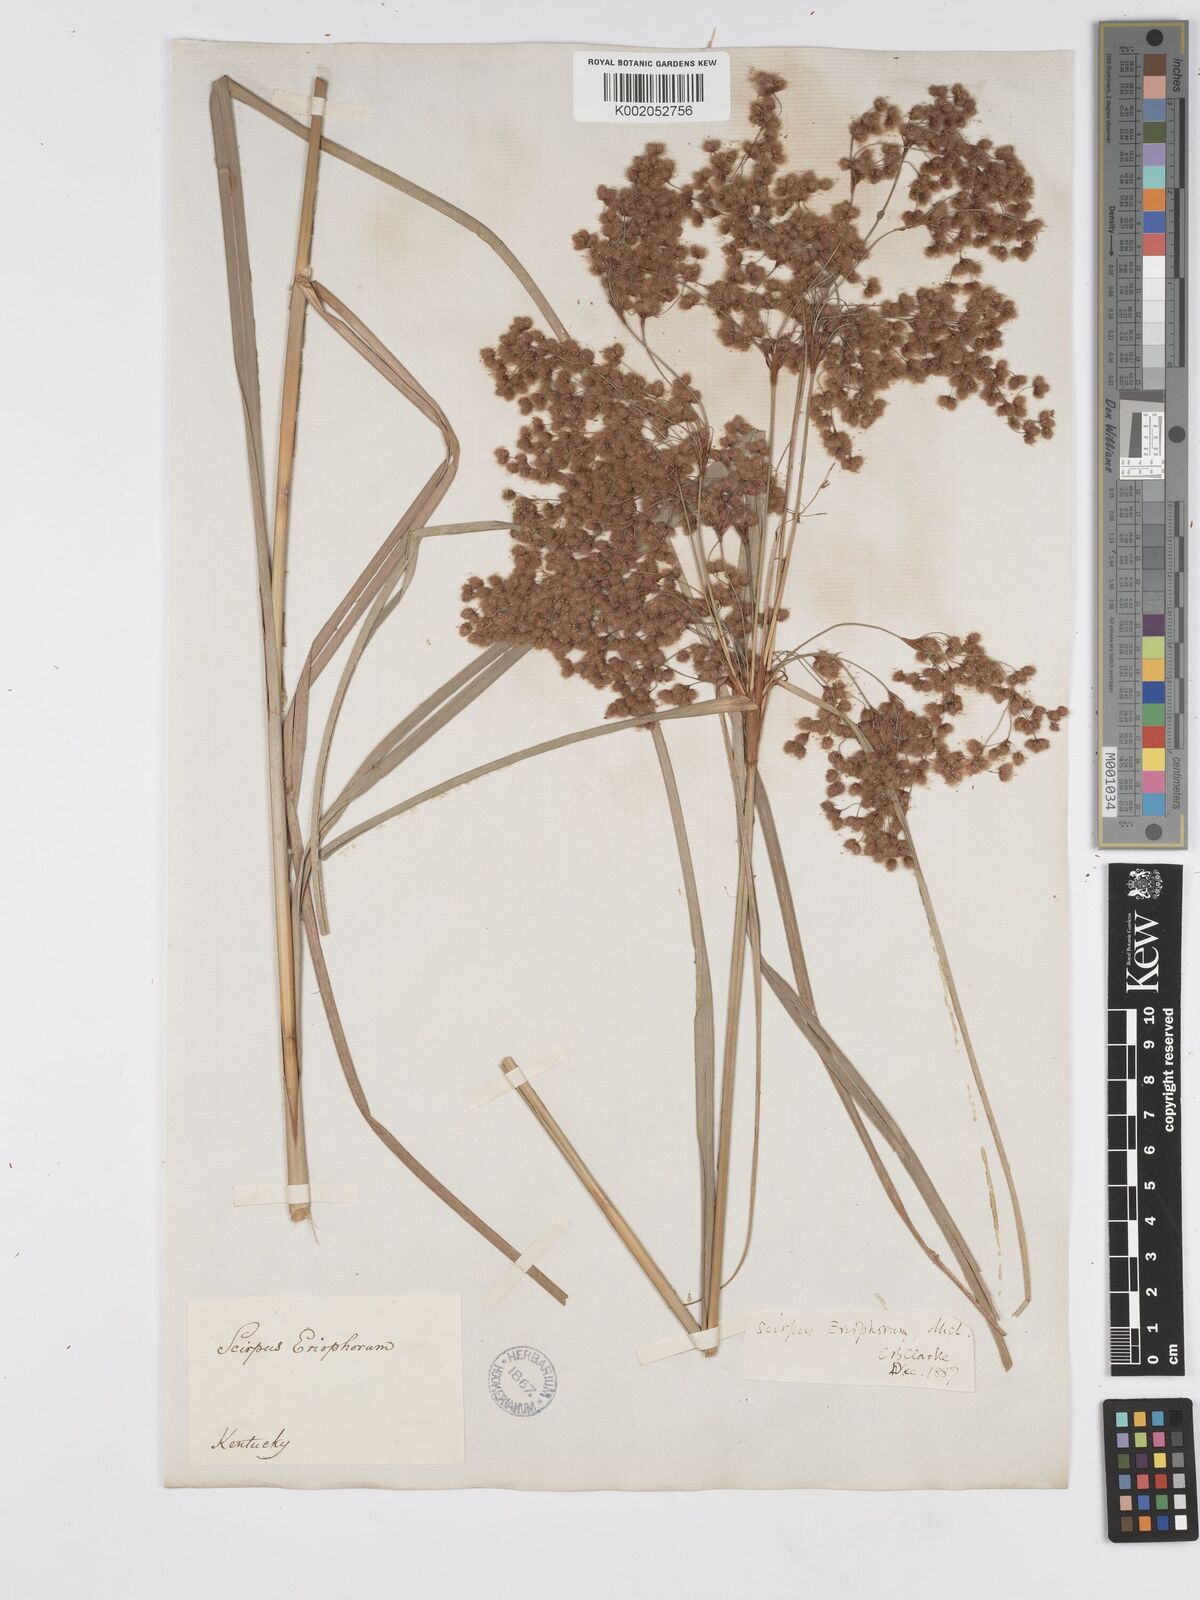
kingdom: Plantae
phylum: Tracheophyta
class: Liliopsida
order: Poales
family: Cyperaceae
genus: Scirpus
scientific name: Scirpus cyperinus
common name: Black-sheathed bulrush
